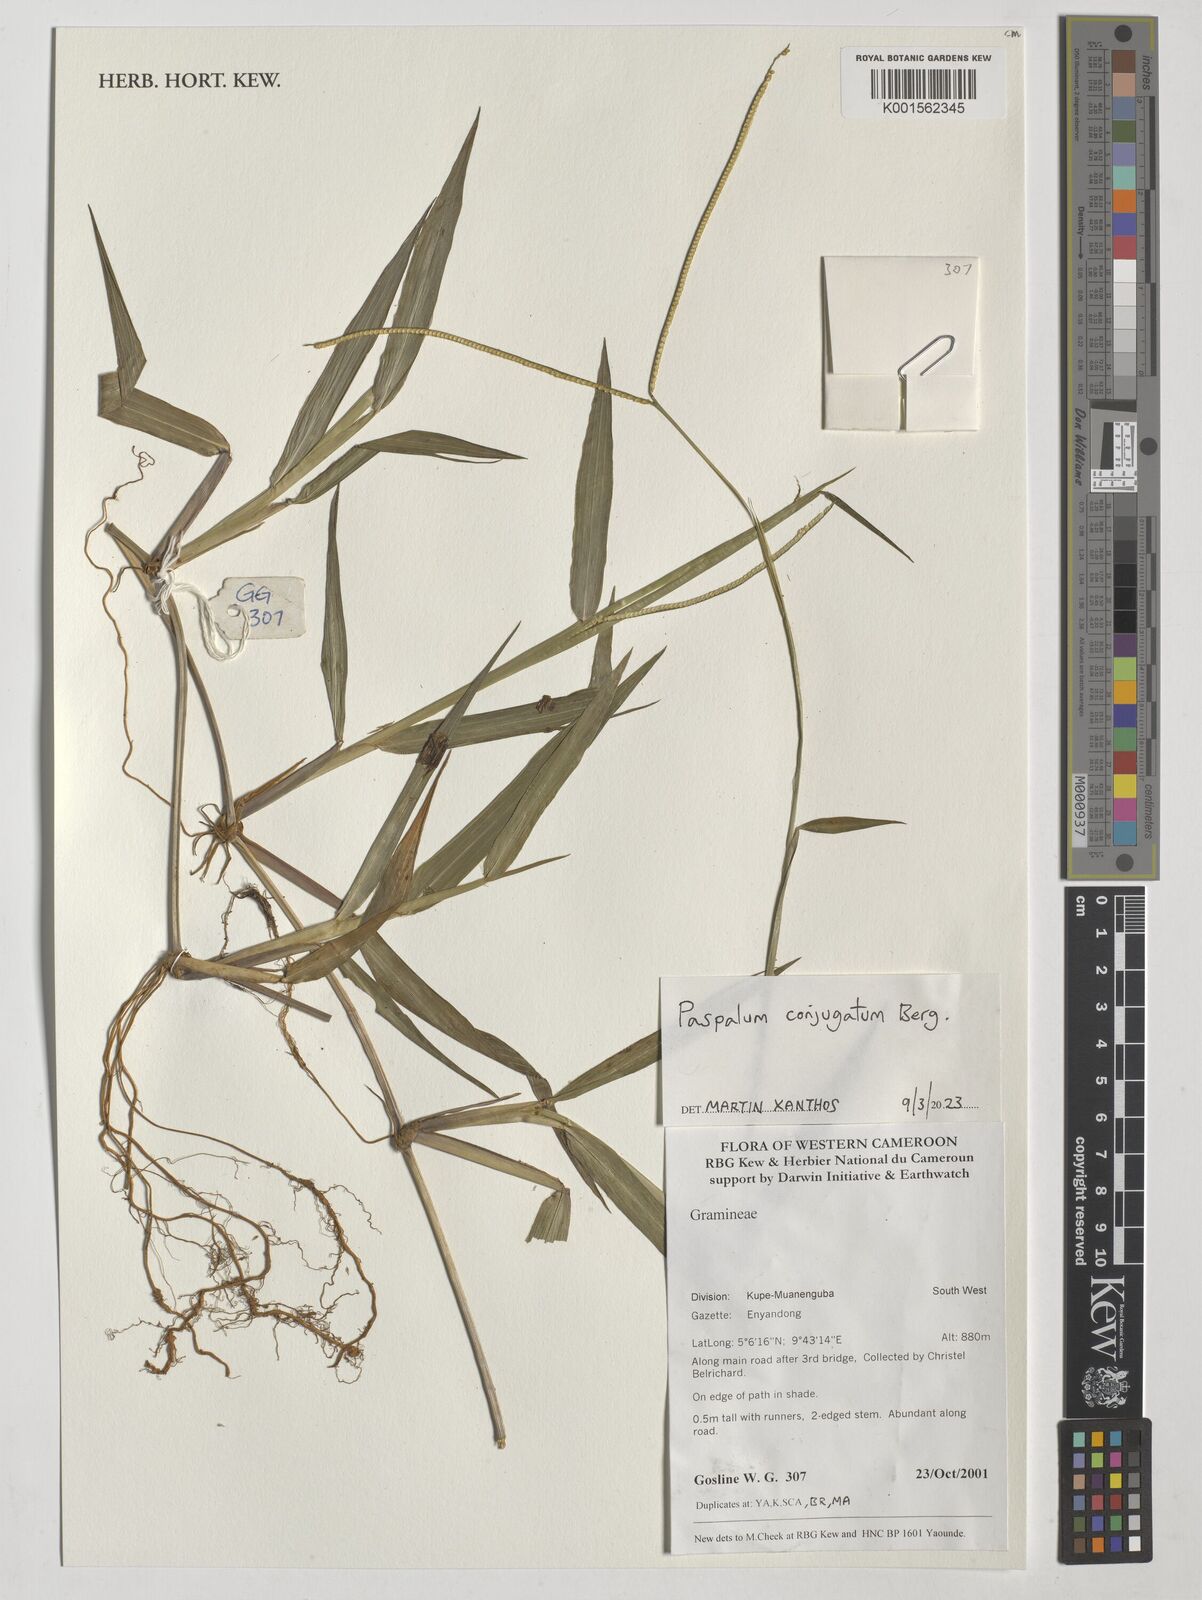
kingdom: Plantae
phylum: Tracheophyta
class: Liliopsida
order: Poales
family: Poaceae
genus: Paspalum
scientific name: Paspalum conjugatum
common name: Hilograss
